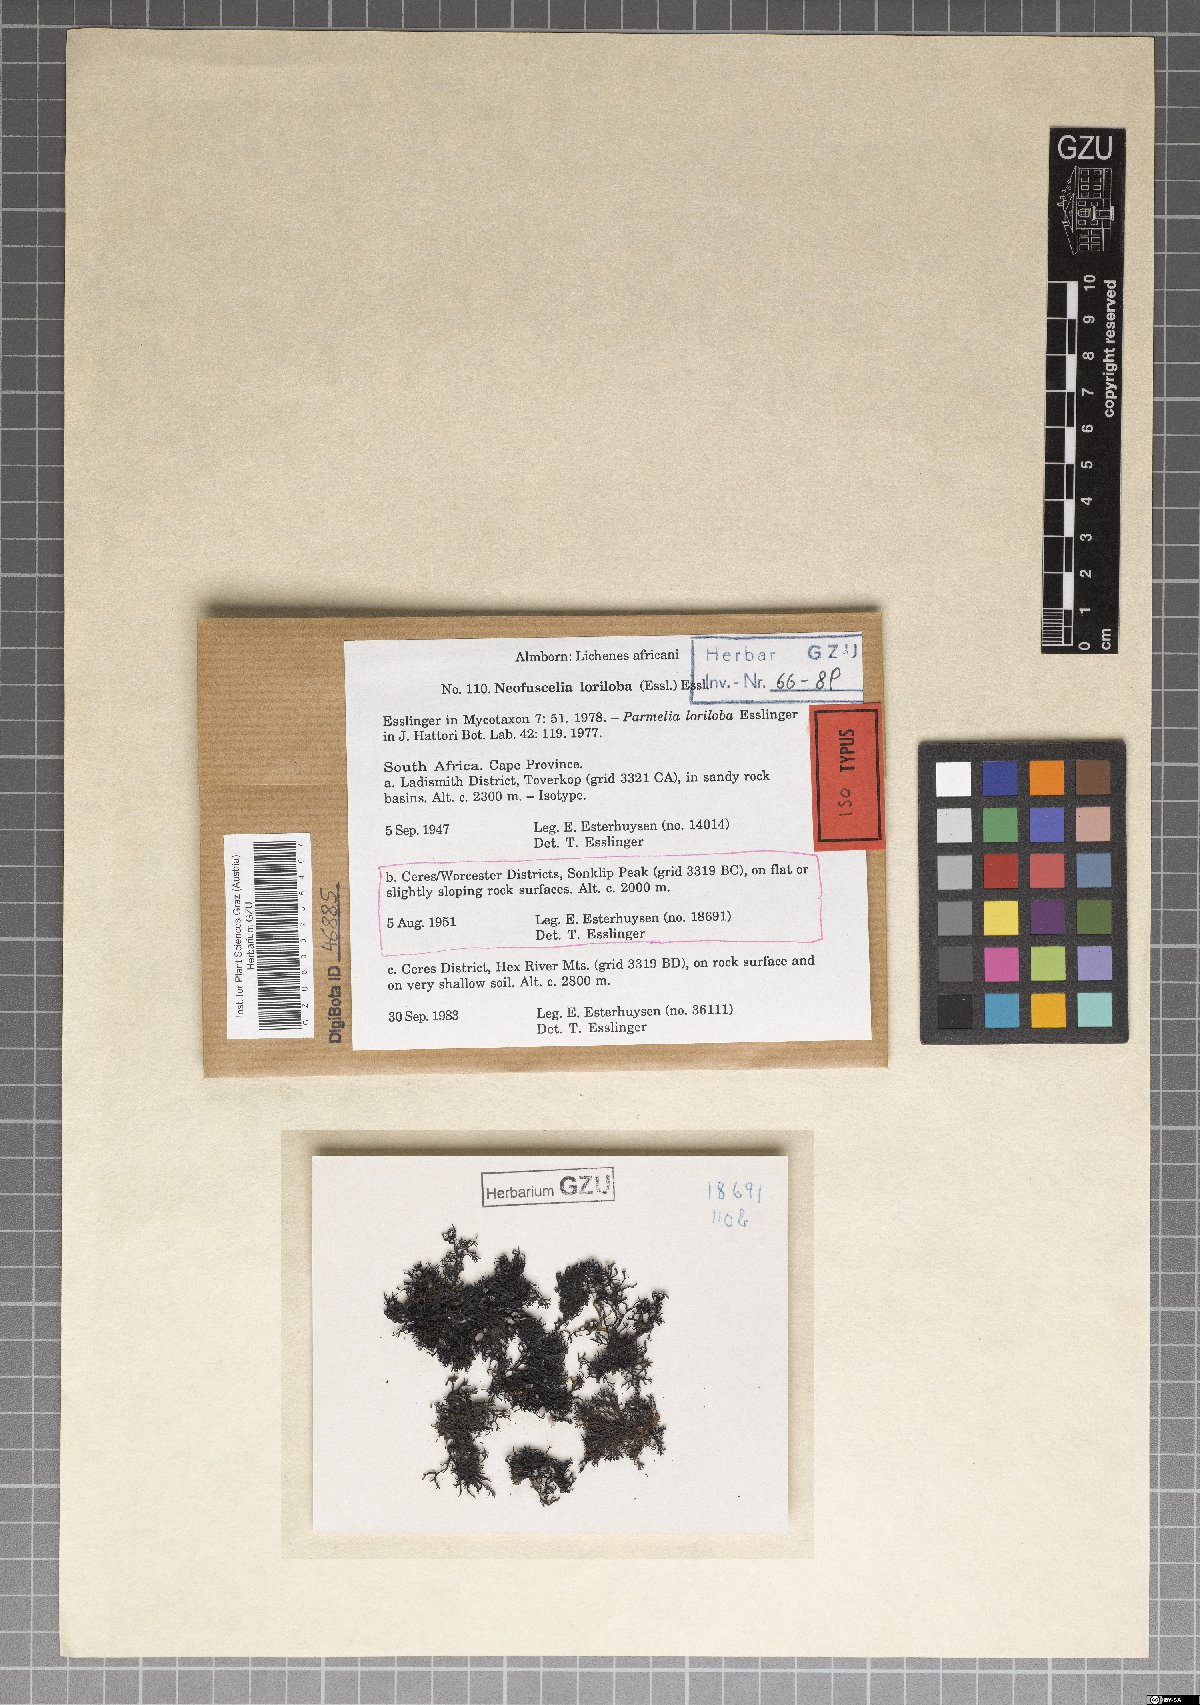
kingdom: Fungi
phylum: Ascomycota
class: Lecanoromycetes
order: Lecanorales
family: Parmeliaceae
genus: Xanthoparmelia
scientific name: Xanthoparmelia loriloba
